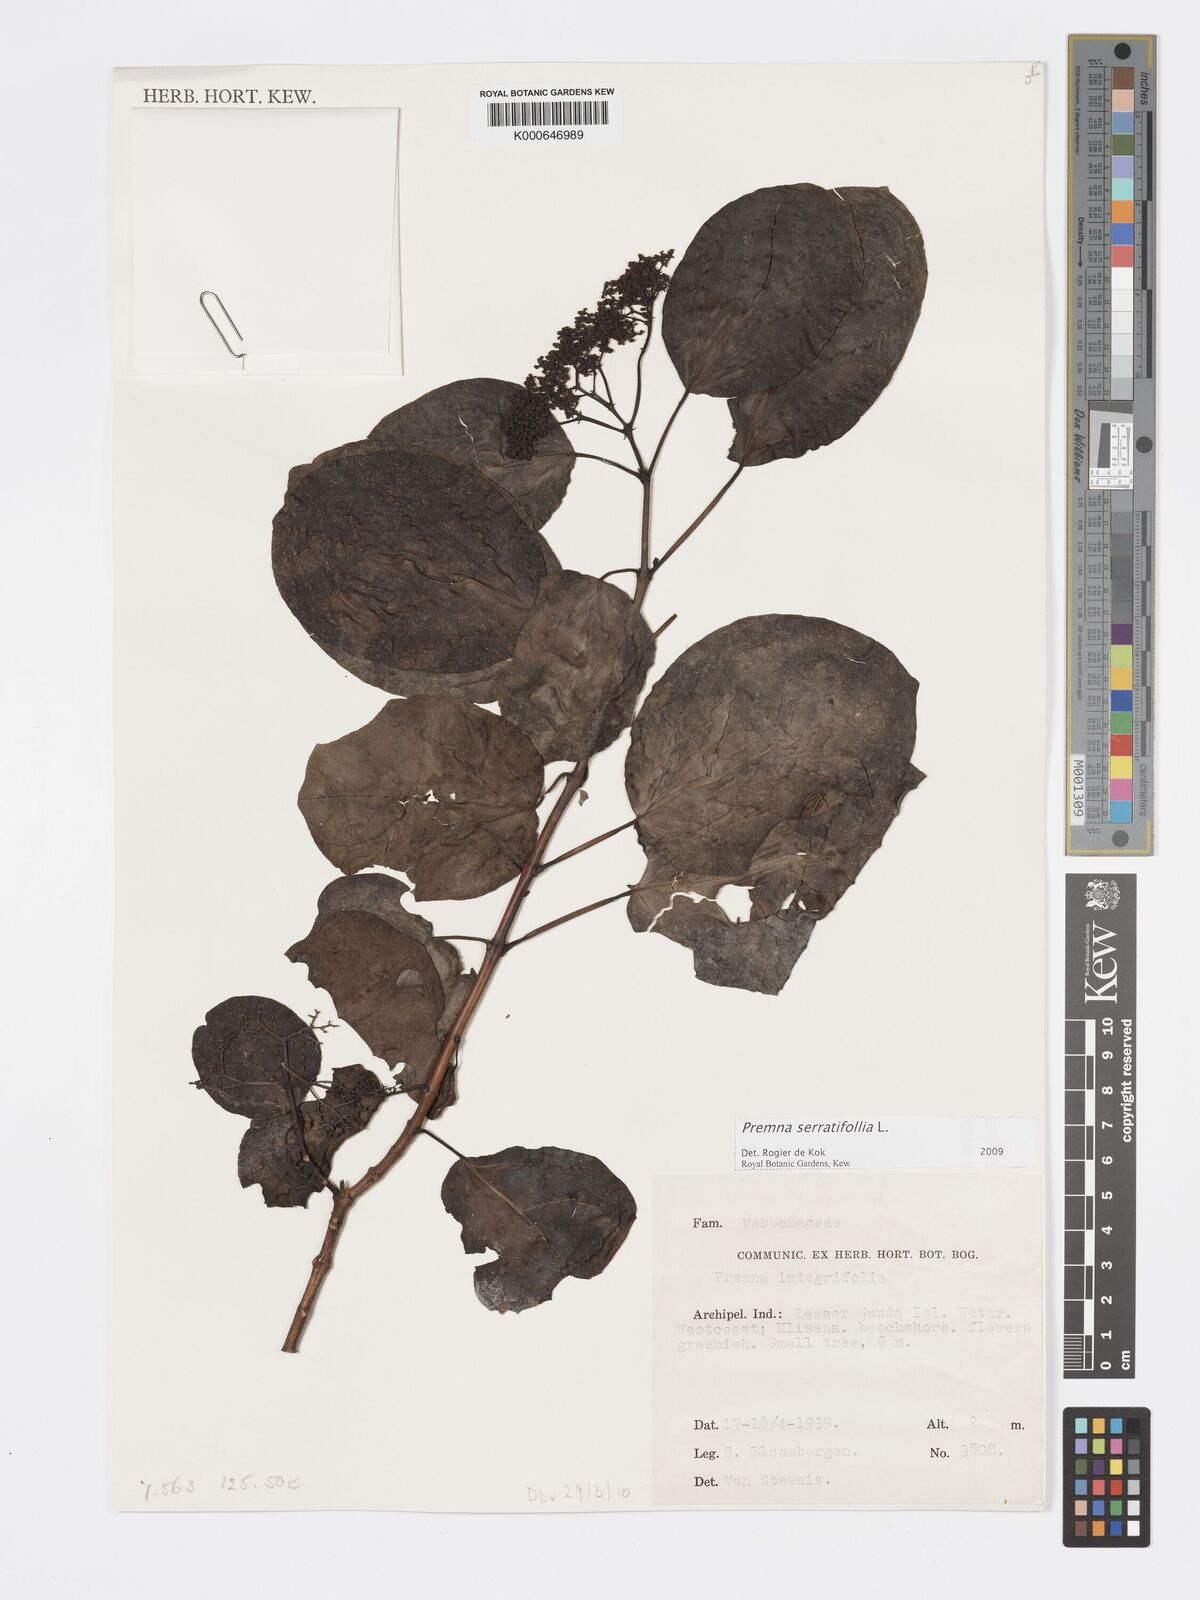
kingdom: Plantae
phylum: Tracheophyta
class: Magnoliopsida
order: Lamiales
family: Lamiaceae
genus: Premna
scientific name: Premna serratifolia
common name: Bastard guelder
